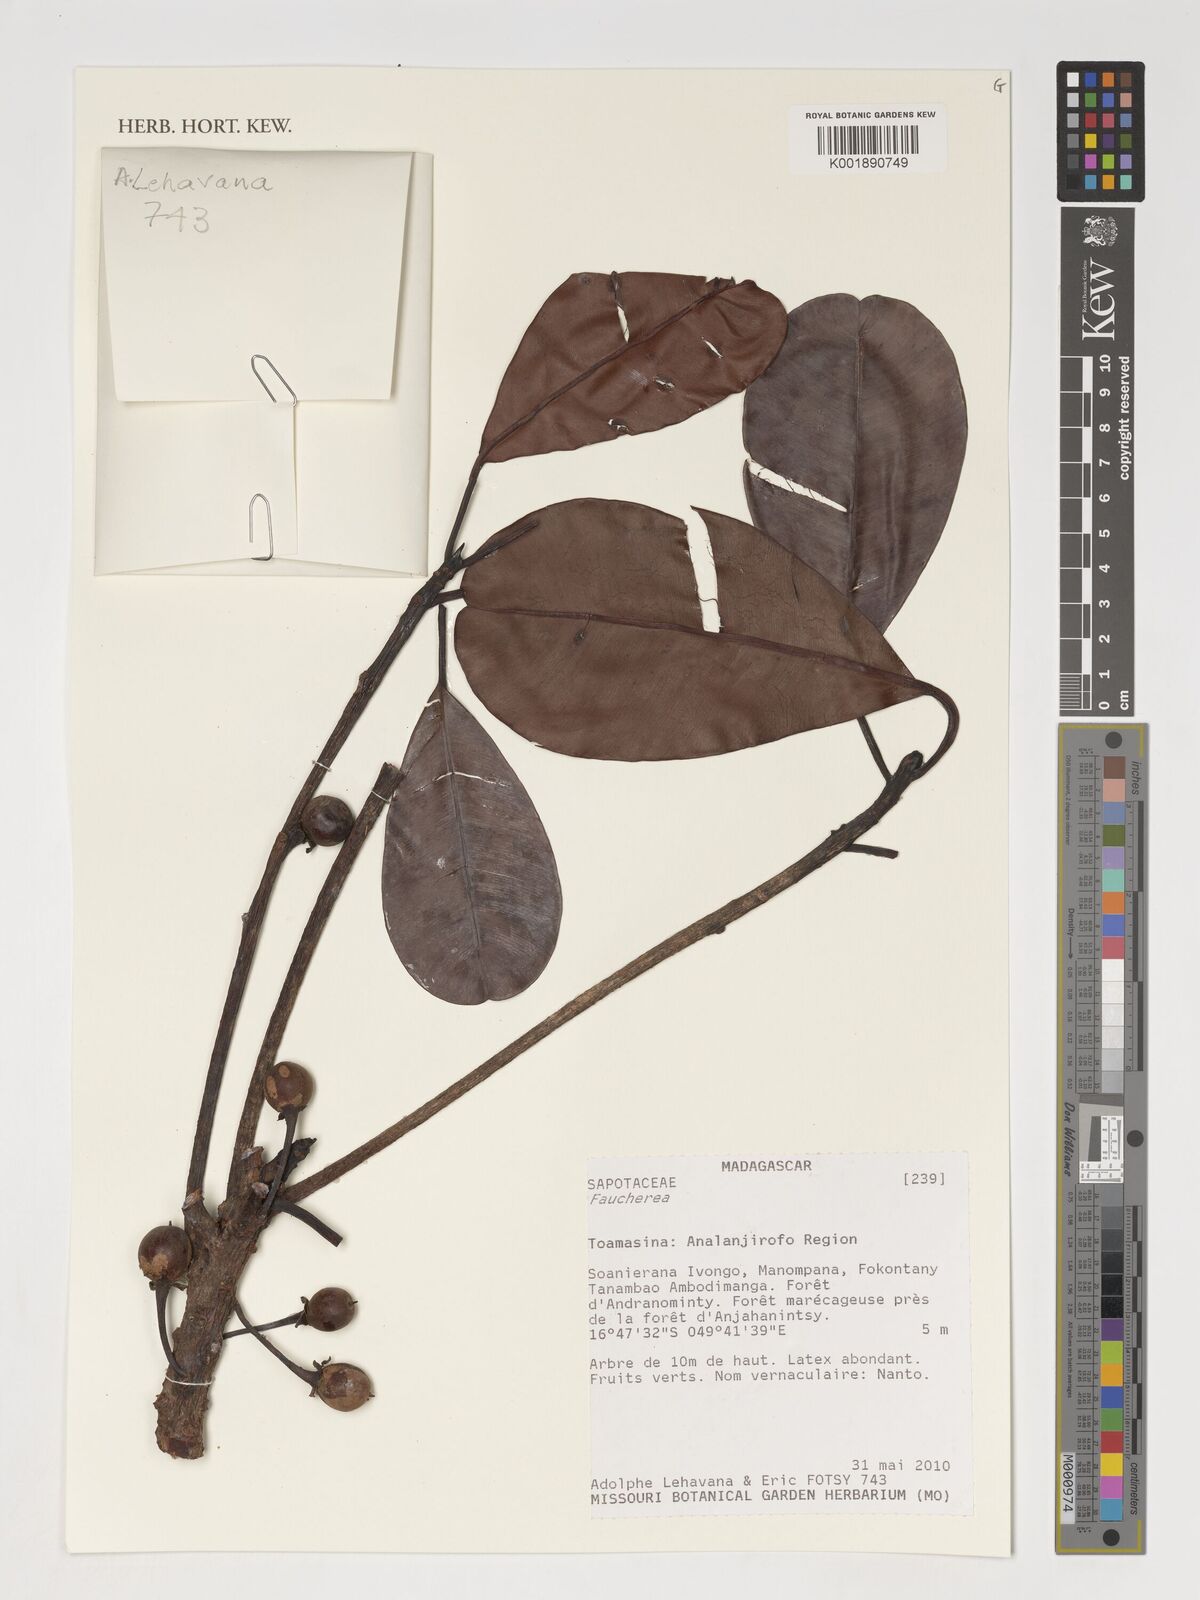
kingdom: Plantae
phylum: Tracheophyta
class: Magnoliopsida
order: Ericales
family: Sapotaceae
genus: Faucherea
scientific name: Faucherea
